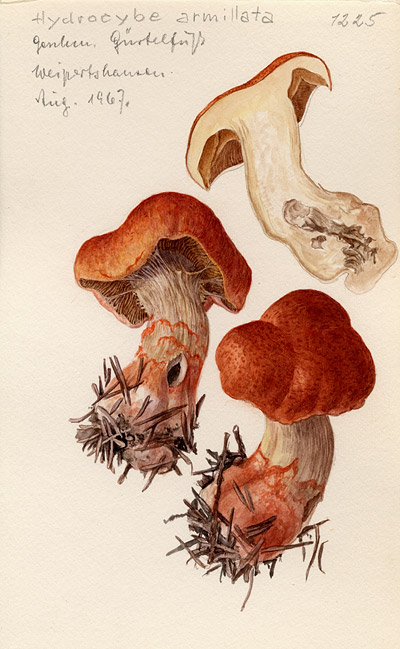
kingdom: Fungi
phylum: Basidiomycota
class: Agaricomycetes
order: Agaricales
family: Cortinariaceae
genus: Cortinarius
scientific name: Cortinarius armillatus
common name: Red banded webcap
